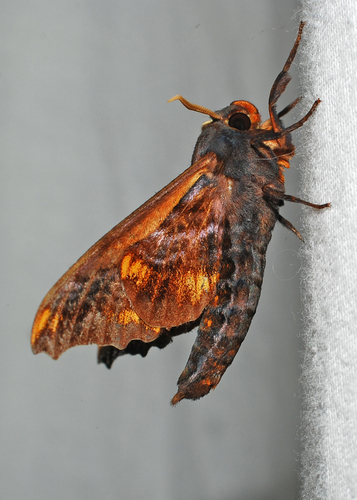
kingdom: Animalia
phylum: Arthropoda
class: Insecta
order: Lepidoptera
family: Sphingidae
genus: Paonias
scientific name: Paonias myops
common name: Small-eyed sphinx
